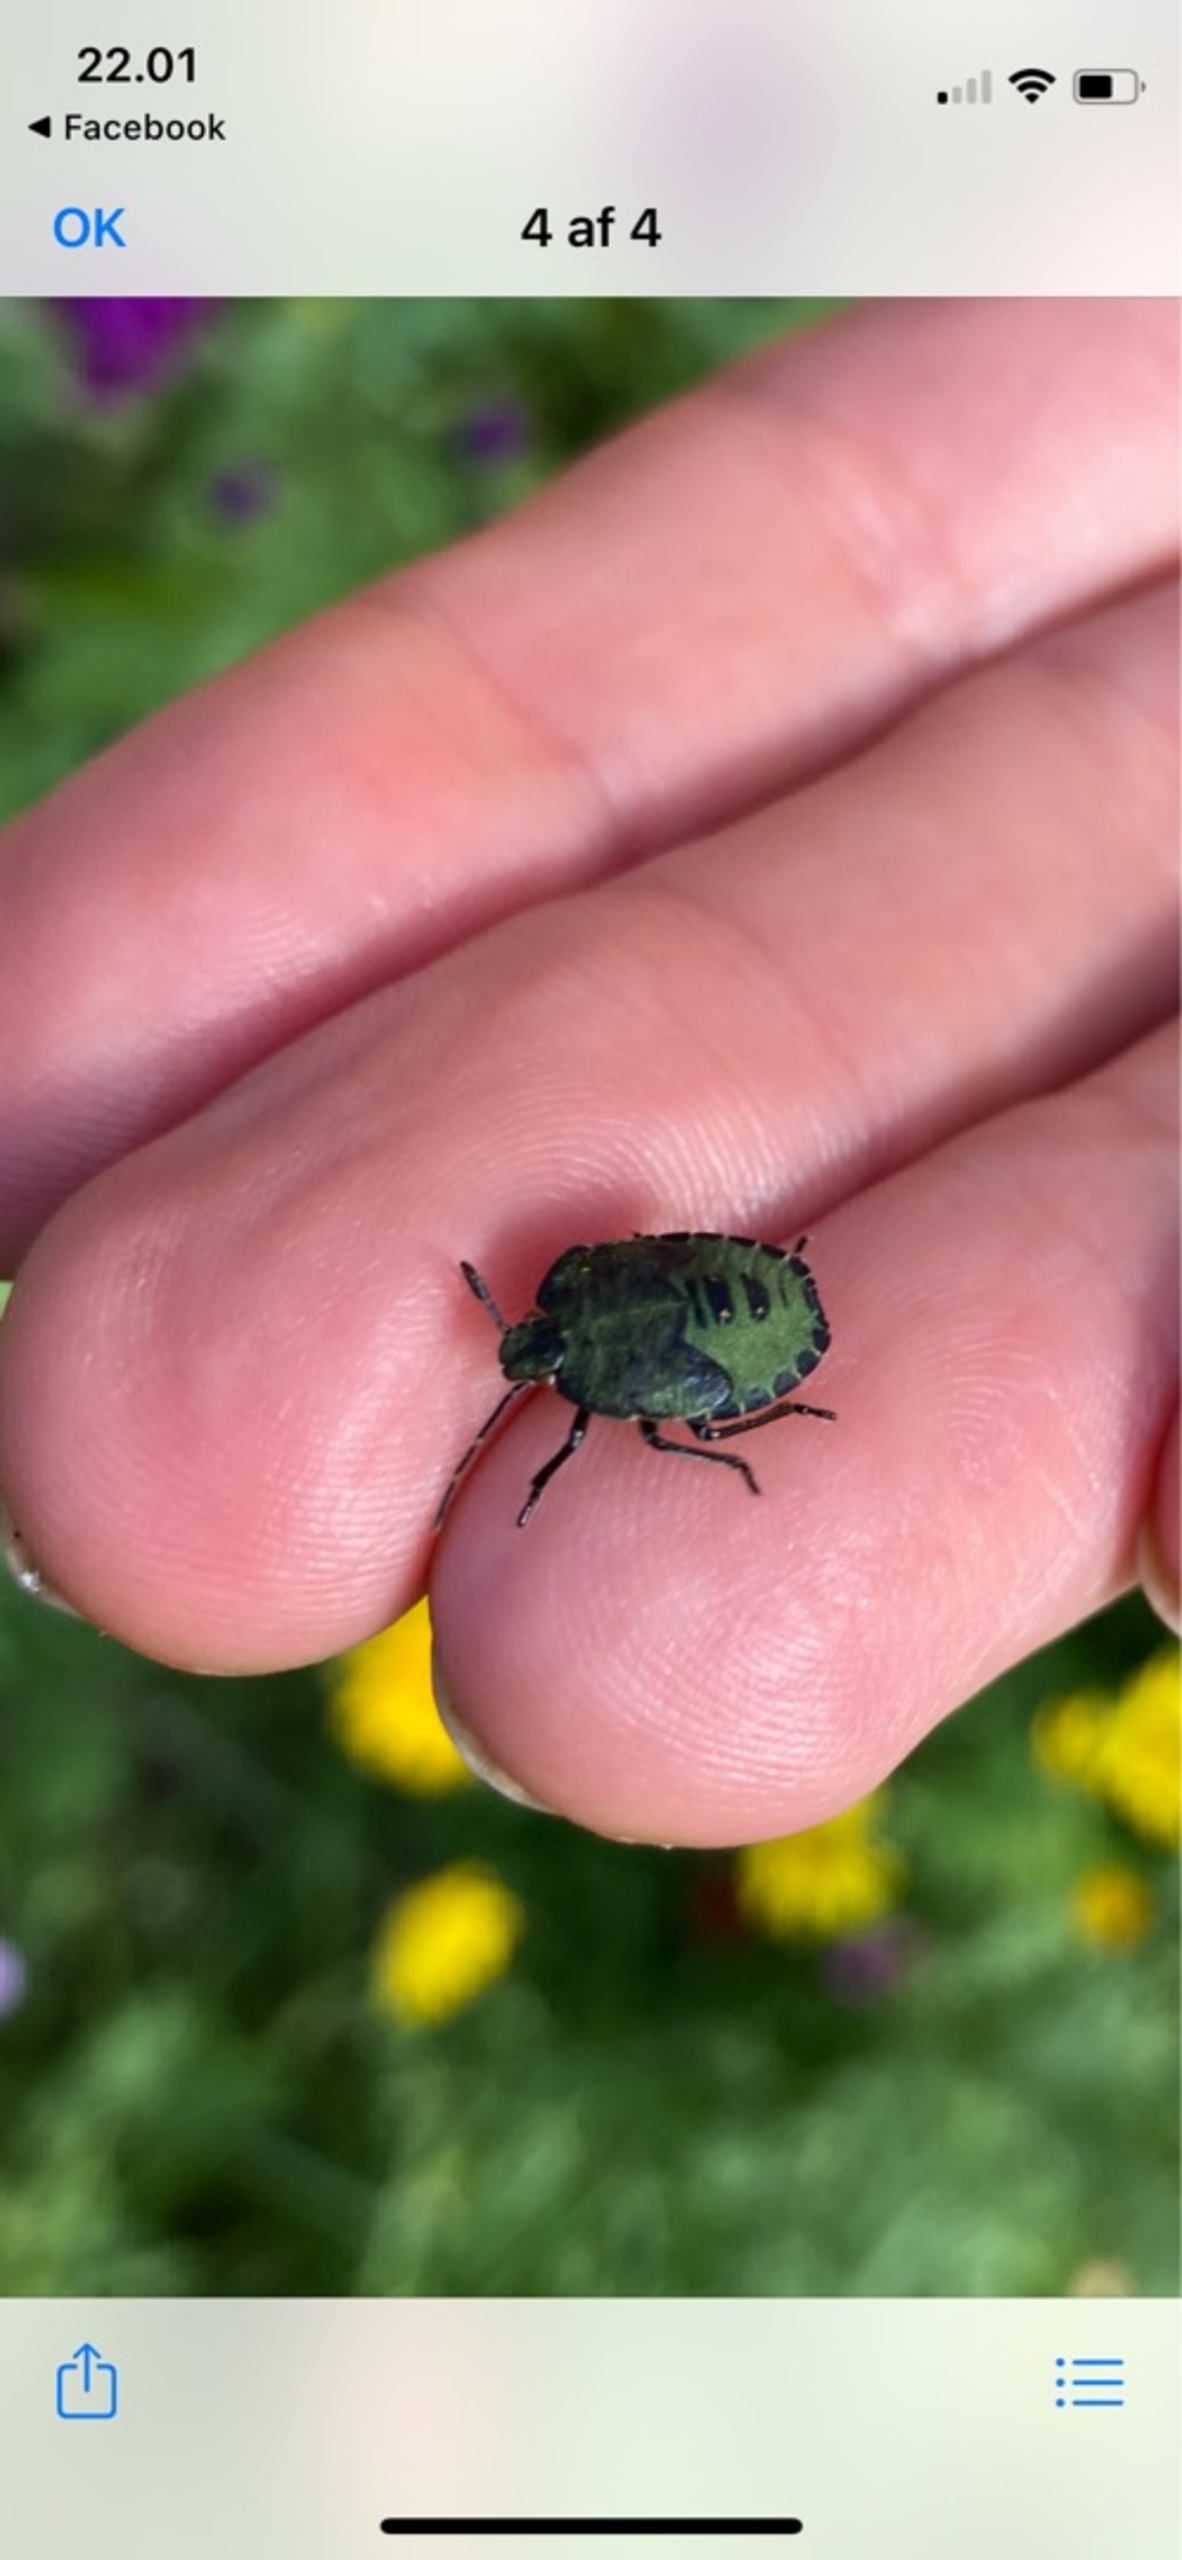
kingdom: Animalia
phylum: Arthropoda
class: Insecta
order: Hemiptera
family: Pentatomidae
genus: Palomena
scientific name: Palomena prasina
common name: Grøn bredtæge
